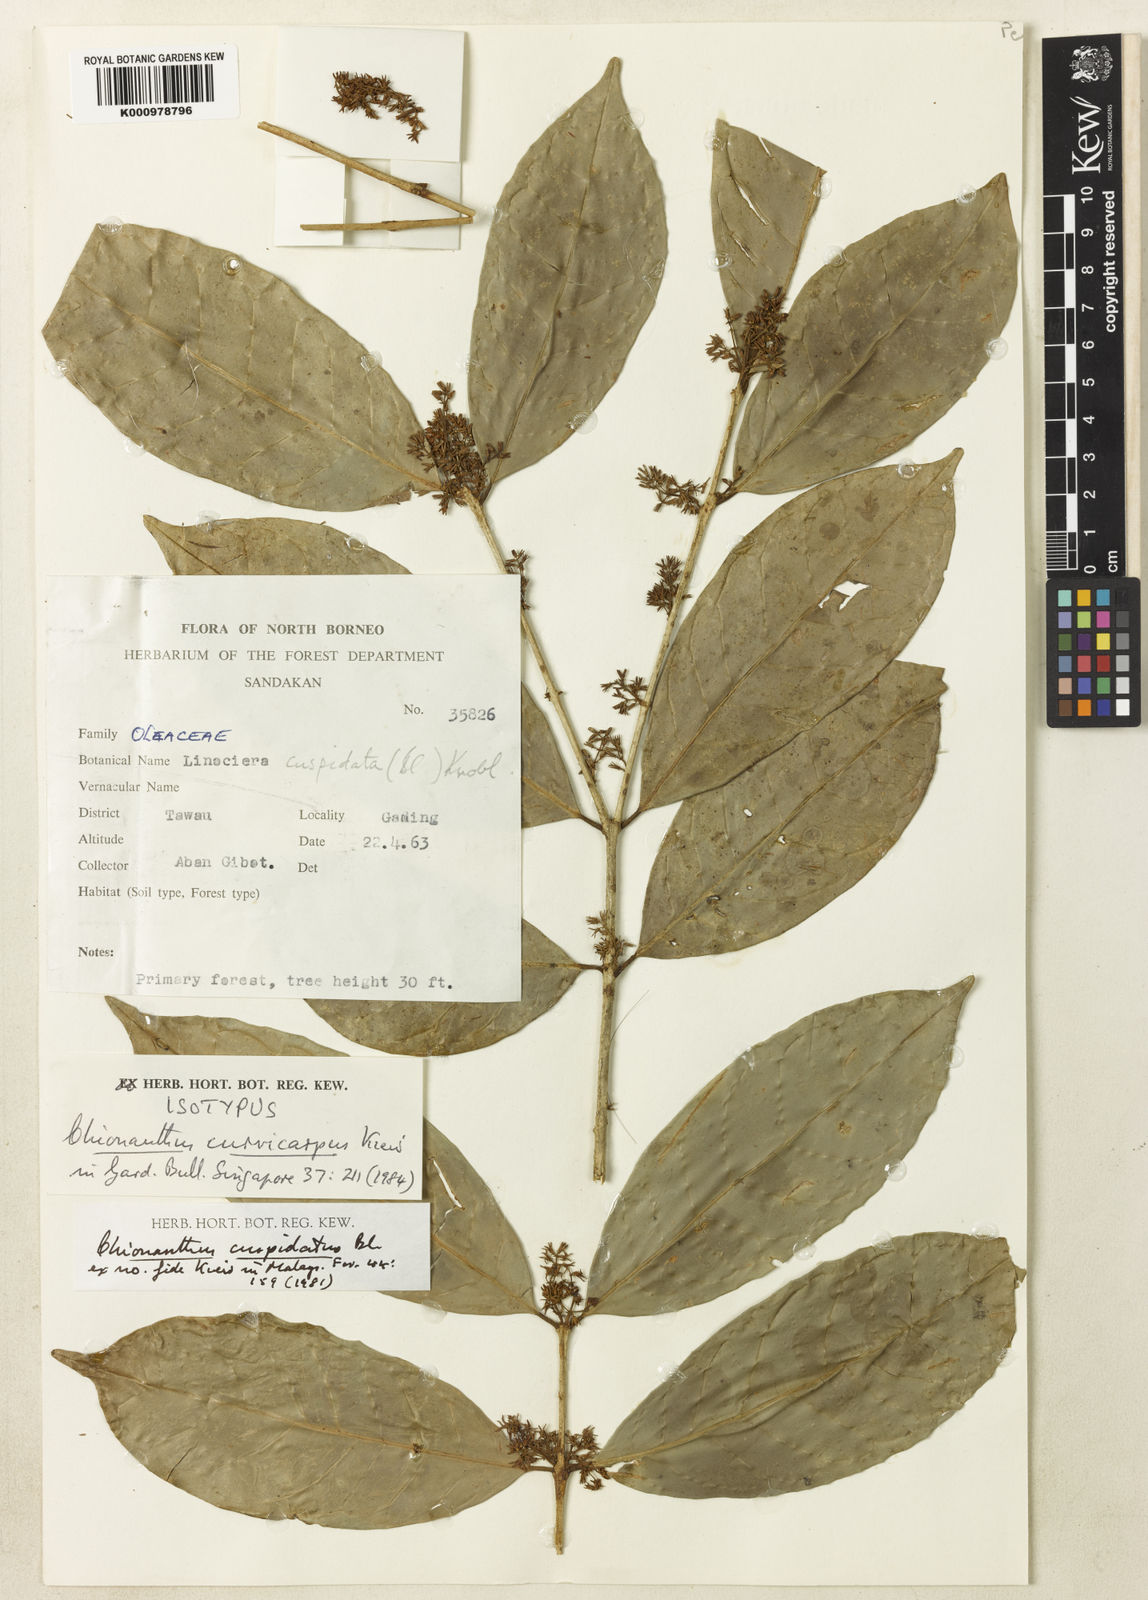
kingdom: Plantae
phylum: Tracheophyta
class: Magnoliopsida
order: Lamiales
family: Oleaceae
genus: Chionanthus
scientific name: Chionanthus curvicarpus
